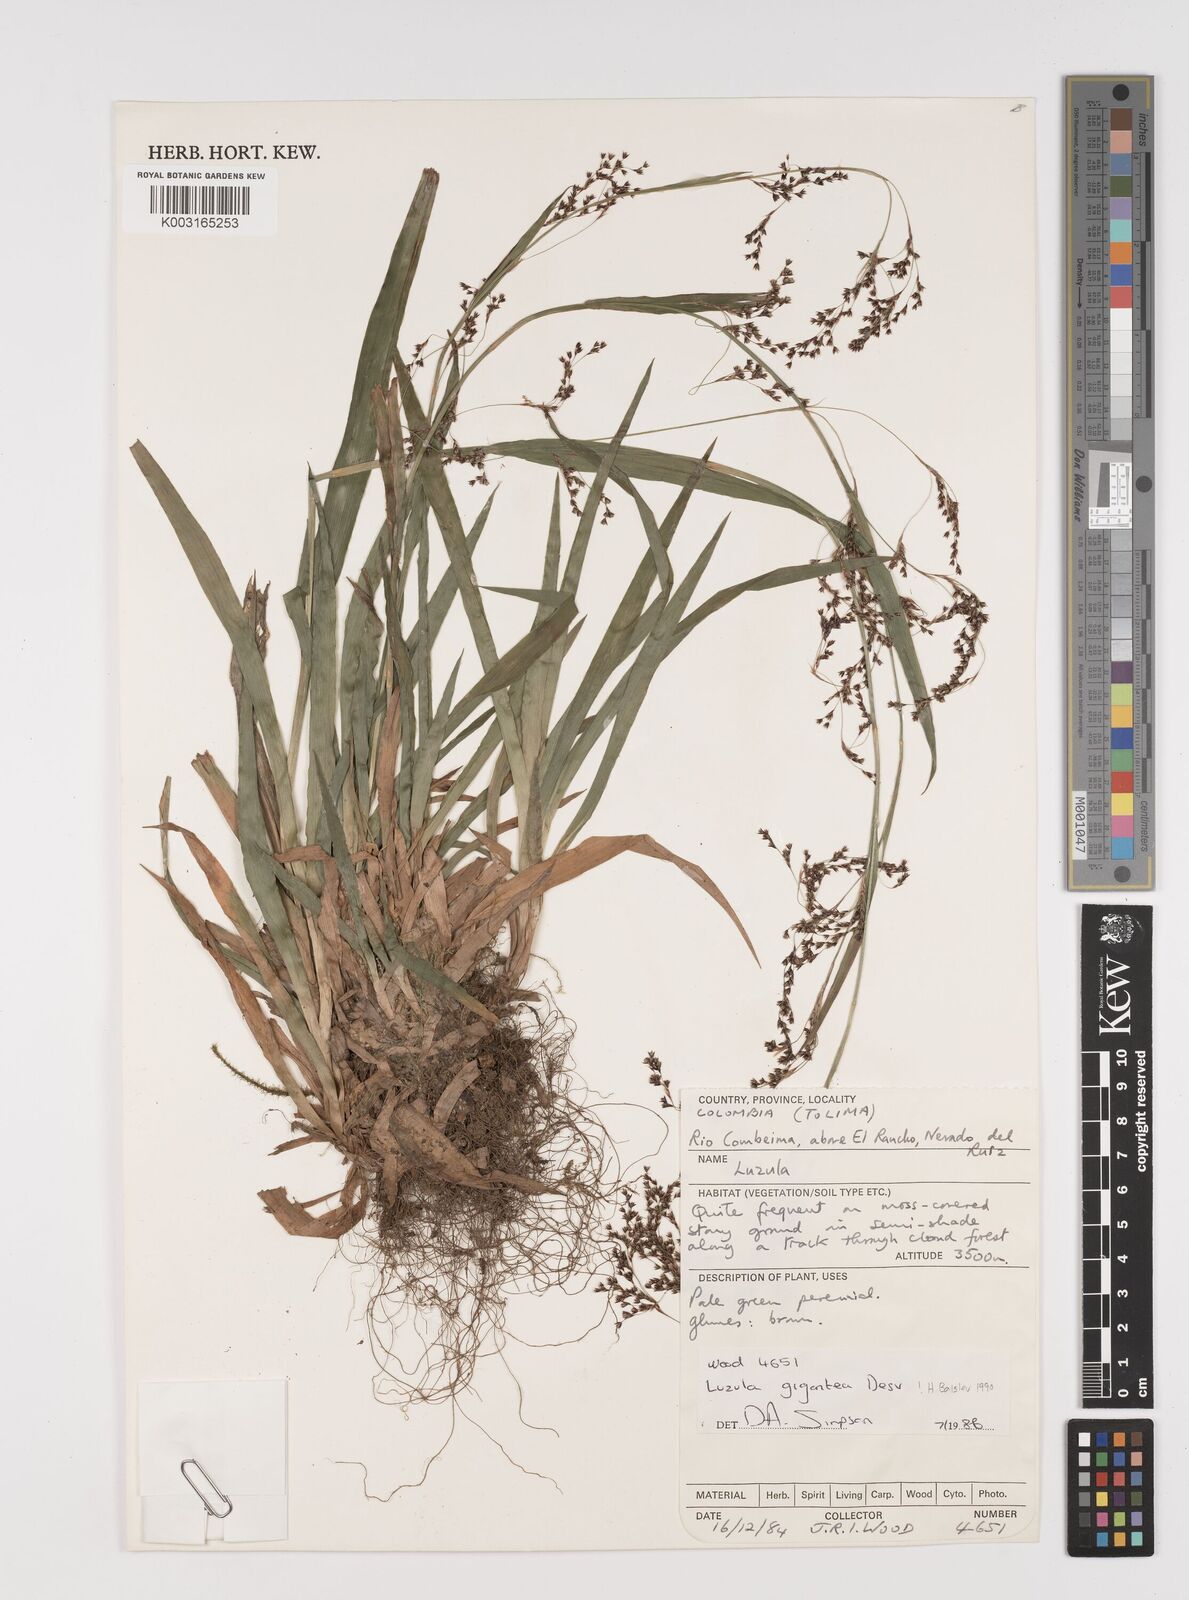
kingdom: Plantae
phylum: Tracheophyta
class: Liliopsida
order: Poales
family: Juncaceae
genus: Luzula
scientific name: Luzula gigantea
